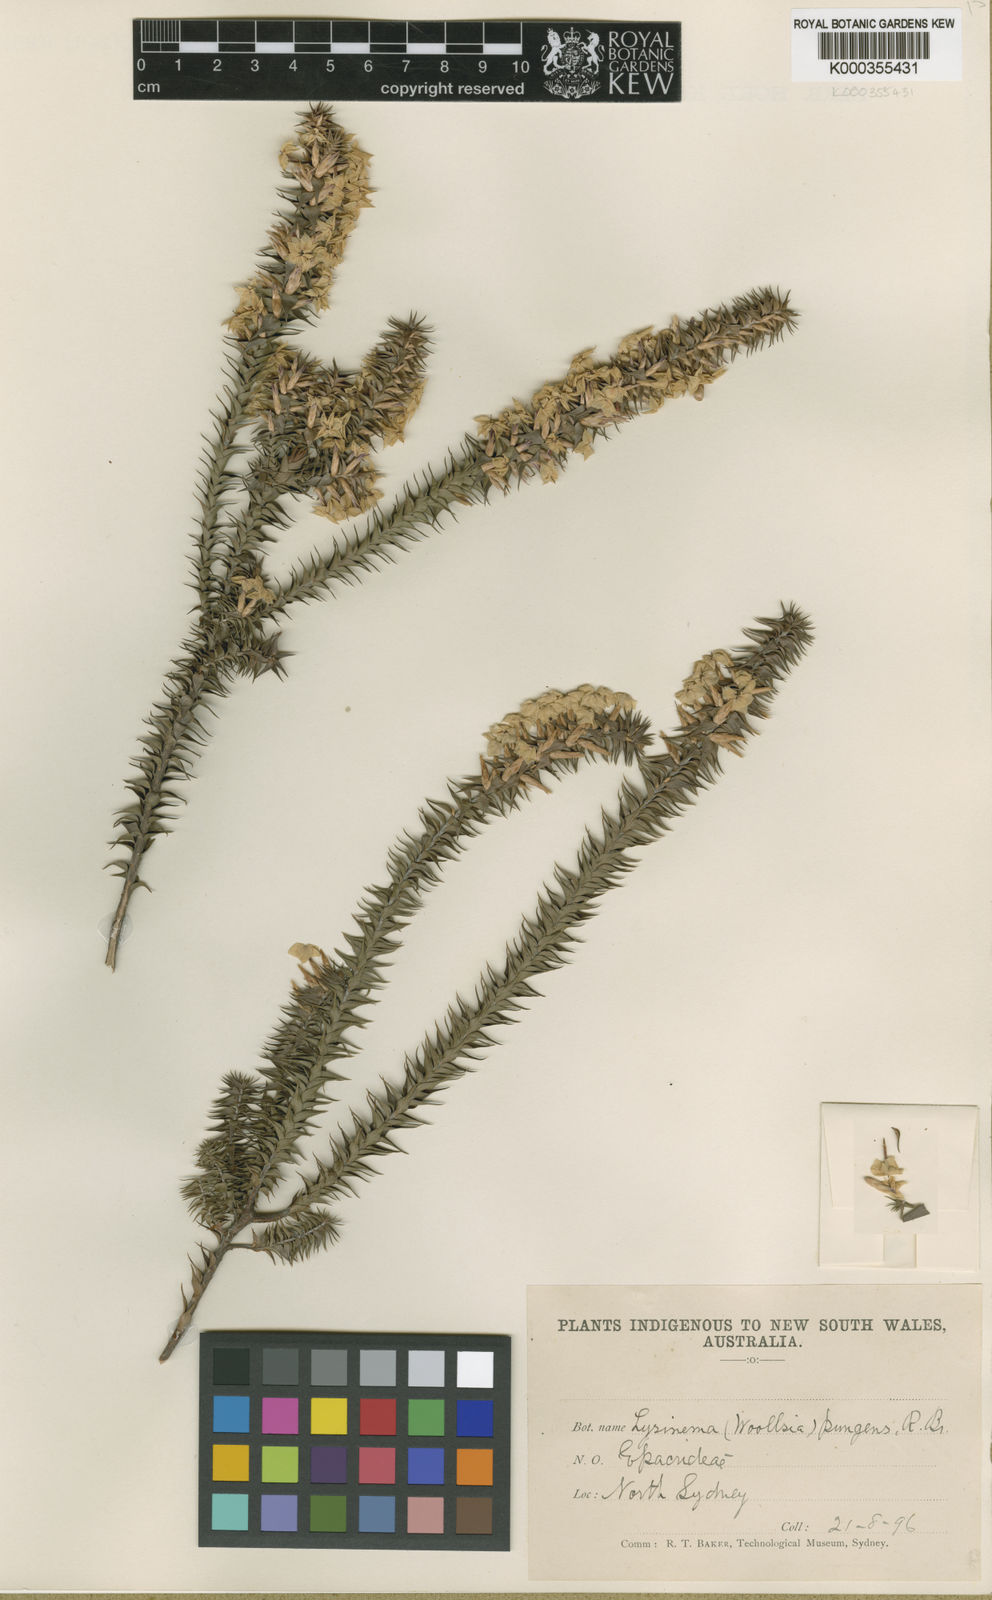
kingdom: Plantae
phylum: Tracheophyta
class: Magnoliopsida
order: Ericales
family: Ericaceae
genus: Woollsia
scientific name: Woollsia pungens
